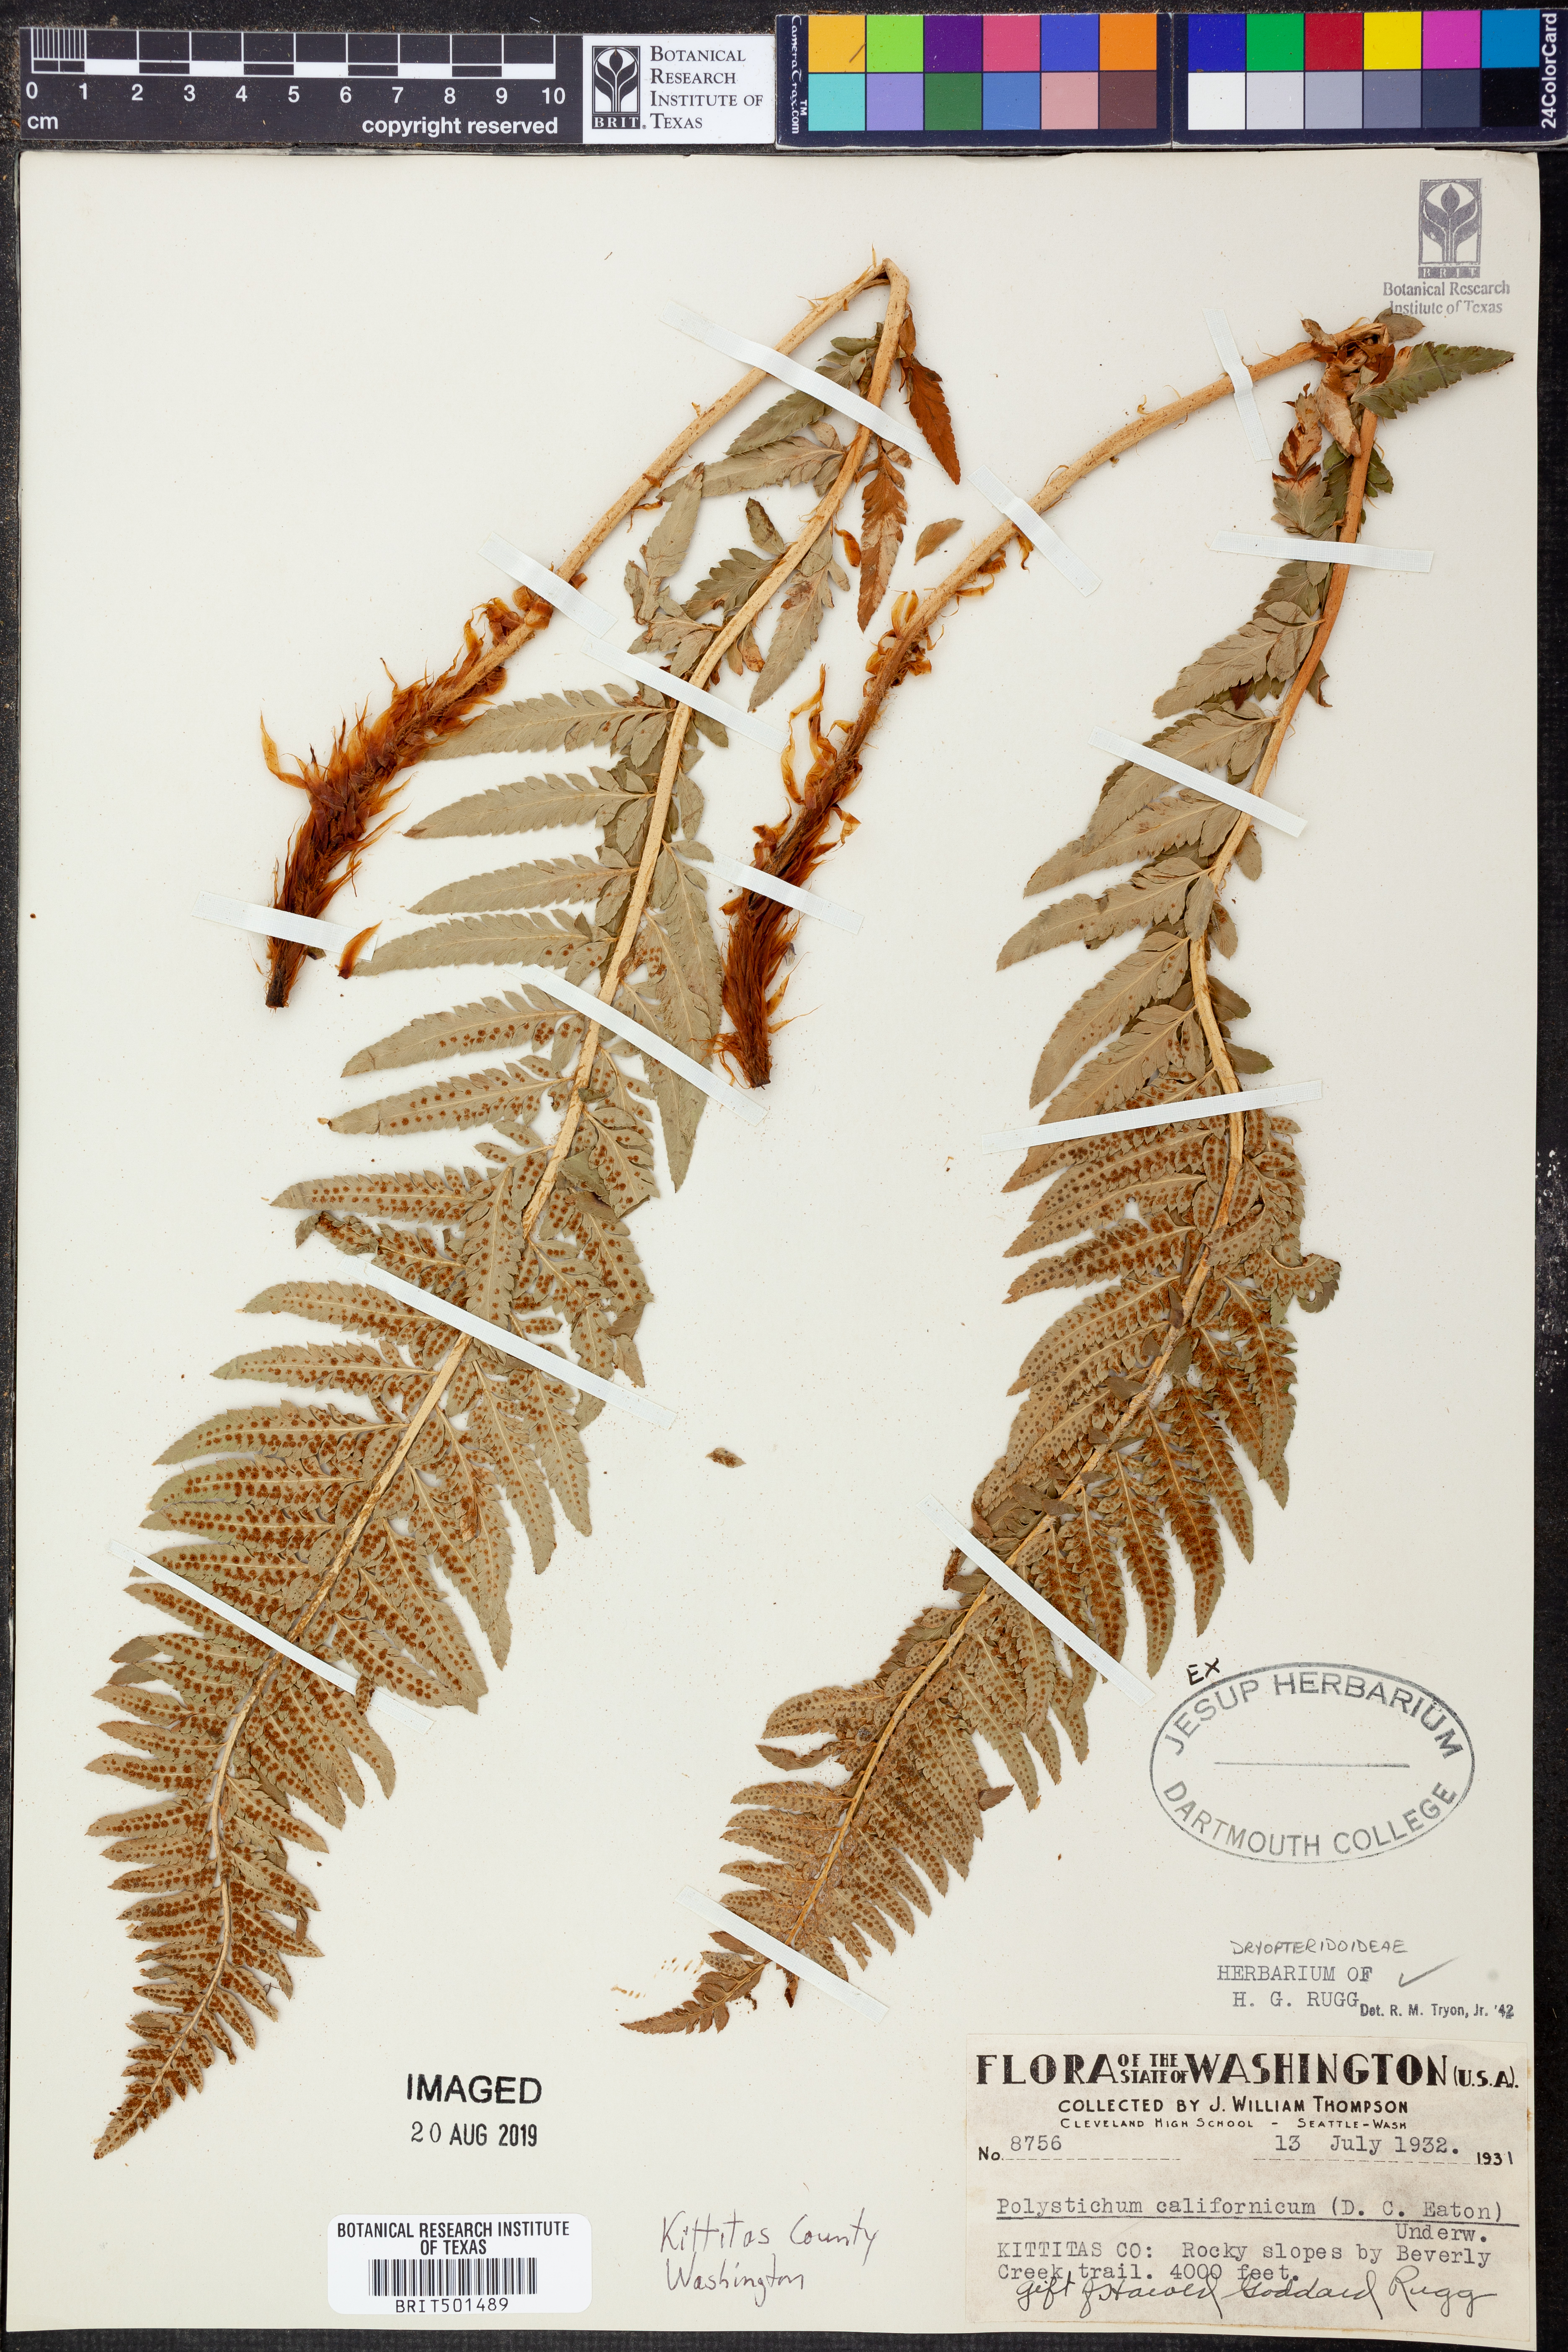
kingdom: Plantae
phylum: Tracheophyta
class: Polypodiopsida
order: Polypodiales
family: Dryopteridaceae
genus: Polystichum
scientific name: Polystichum californicum
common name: California sword fern
